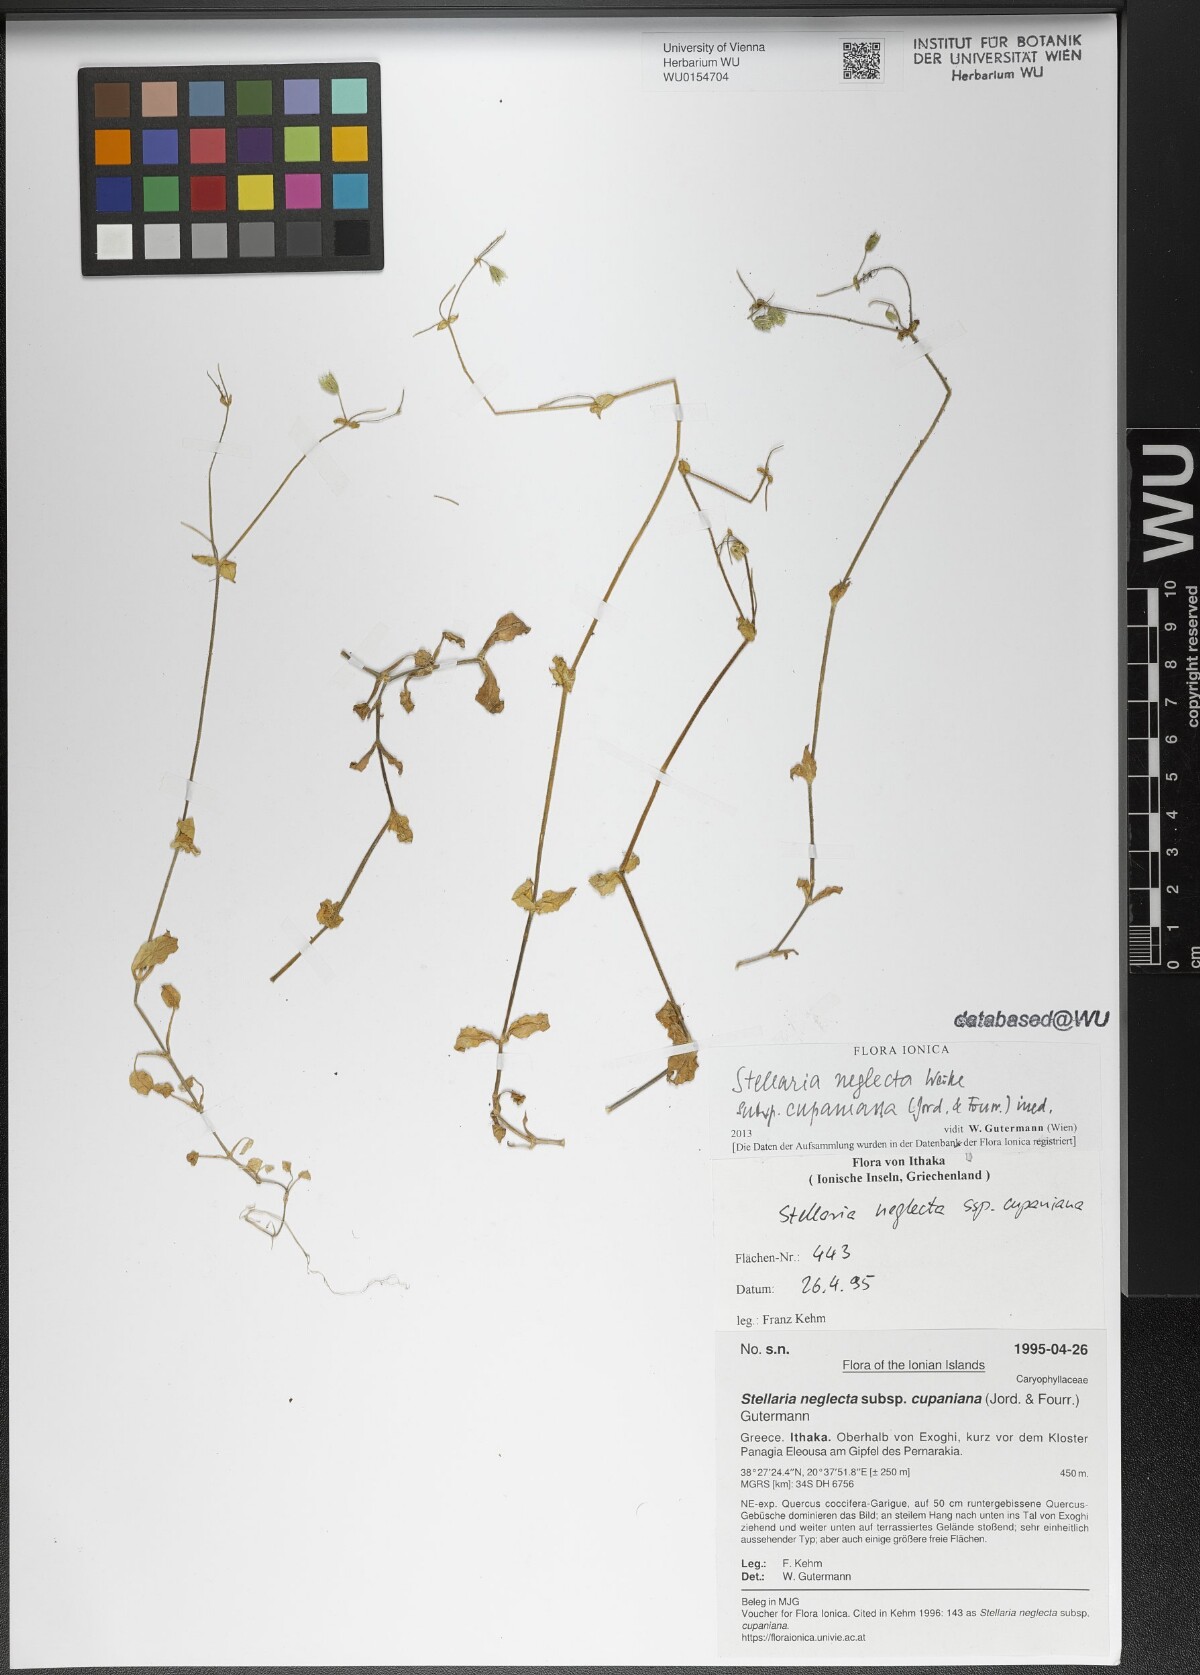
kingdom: Plantae
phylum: Tracheophyta
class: Magnoliopsida
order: Caryophyllales
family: Caryophyllaceae
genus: Stellaria
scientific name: Stellaria cupaniana
